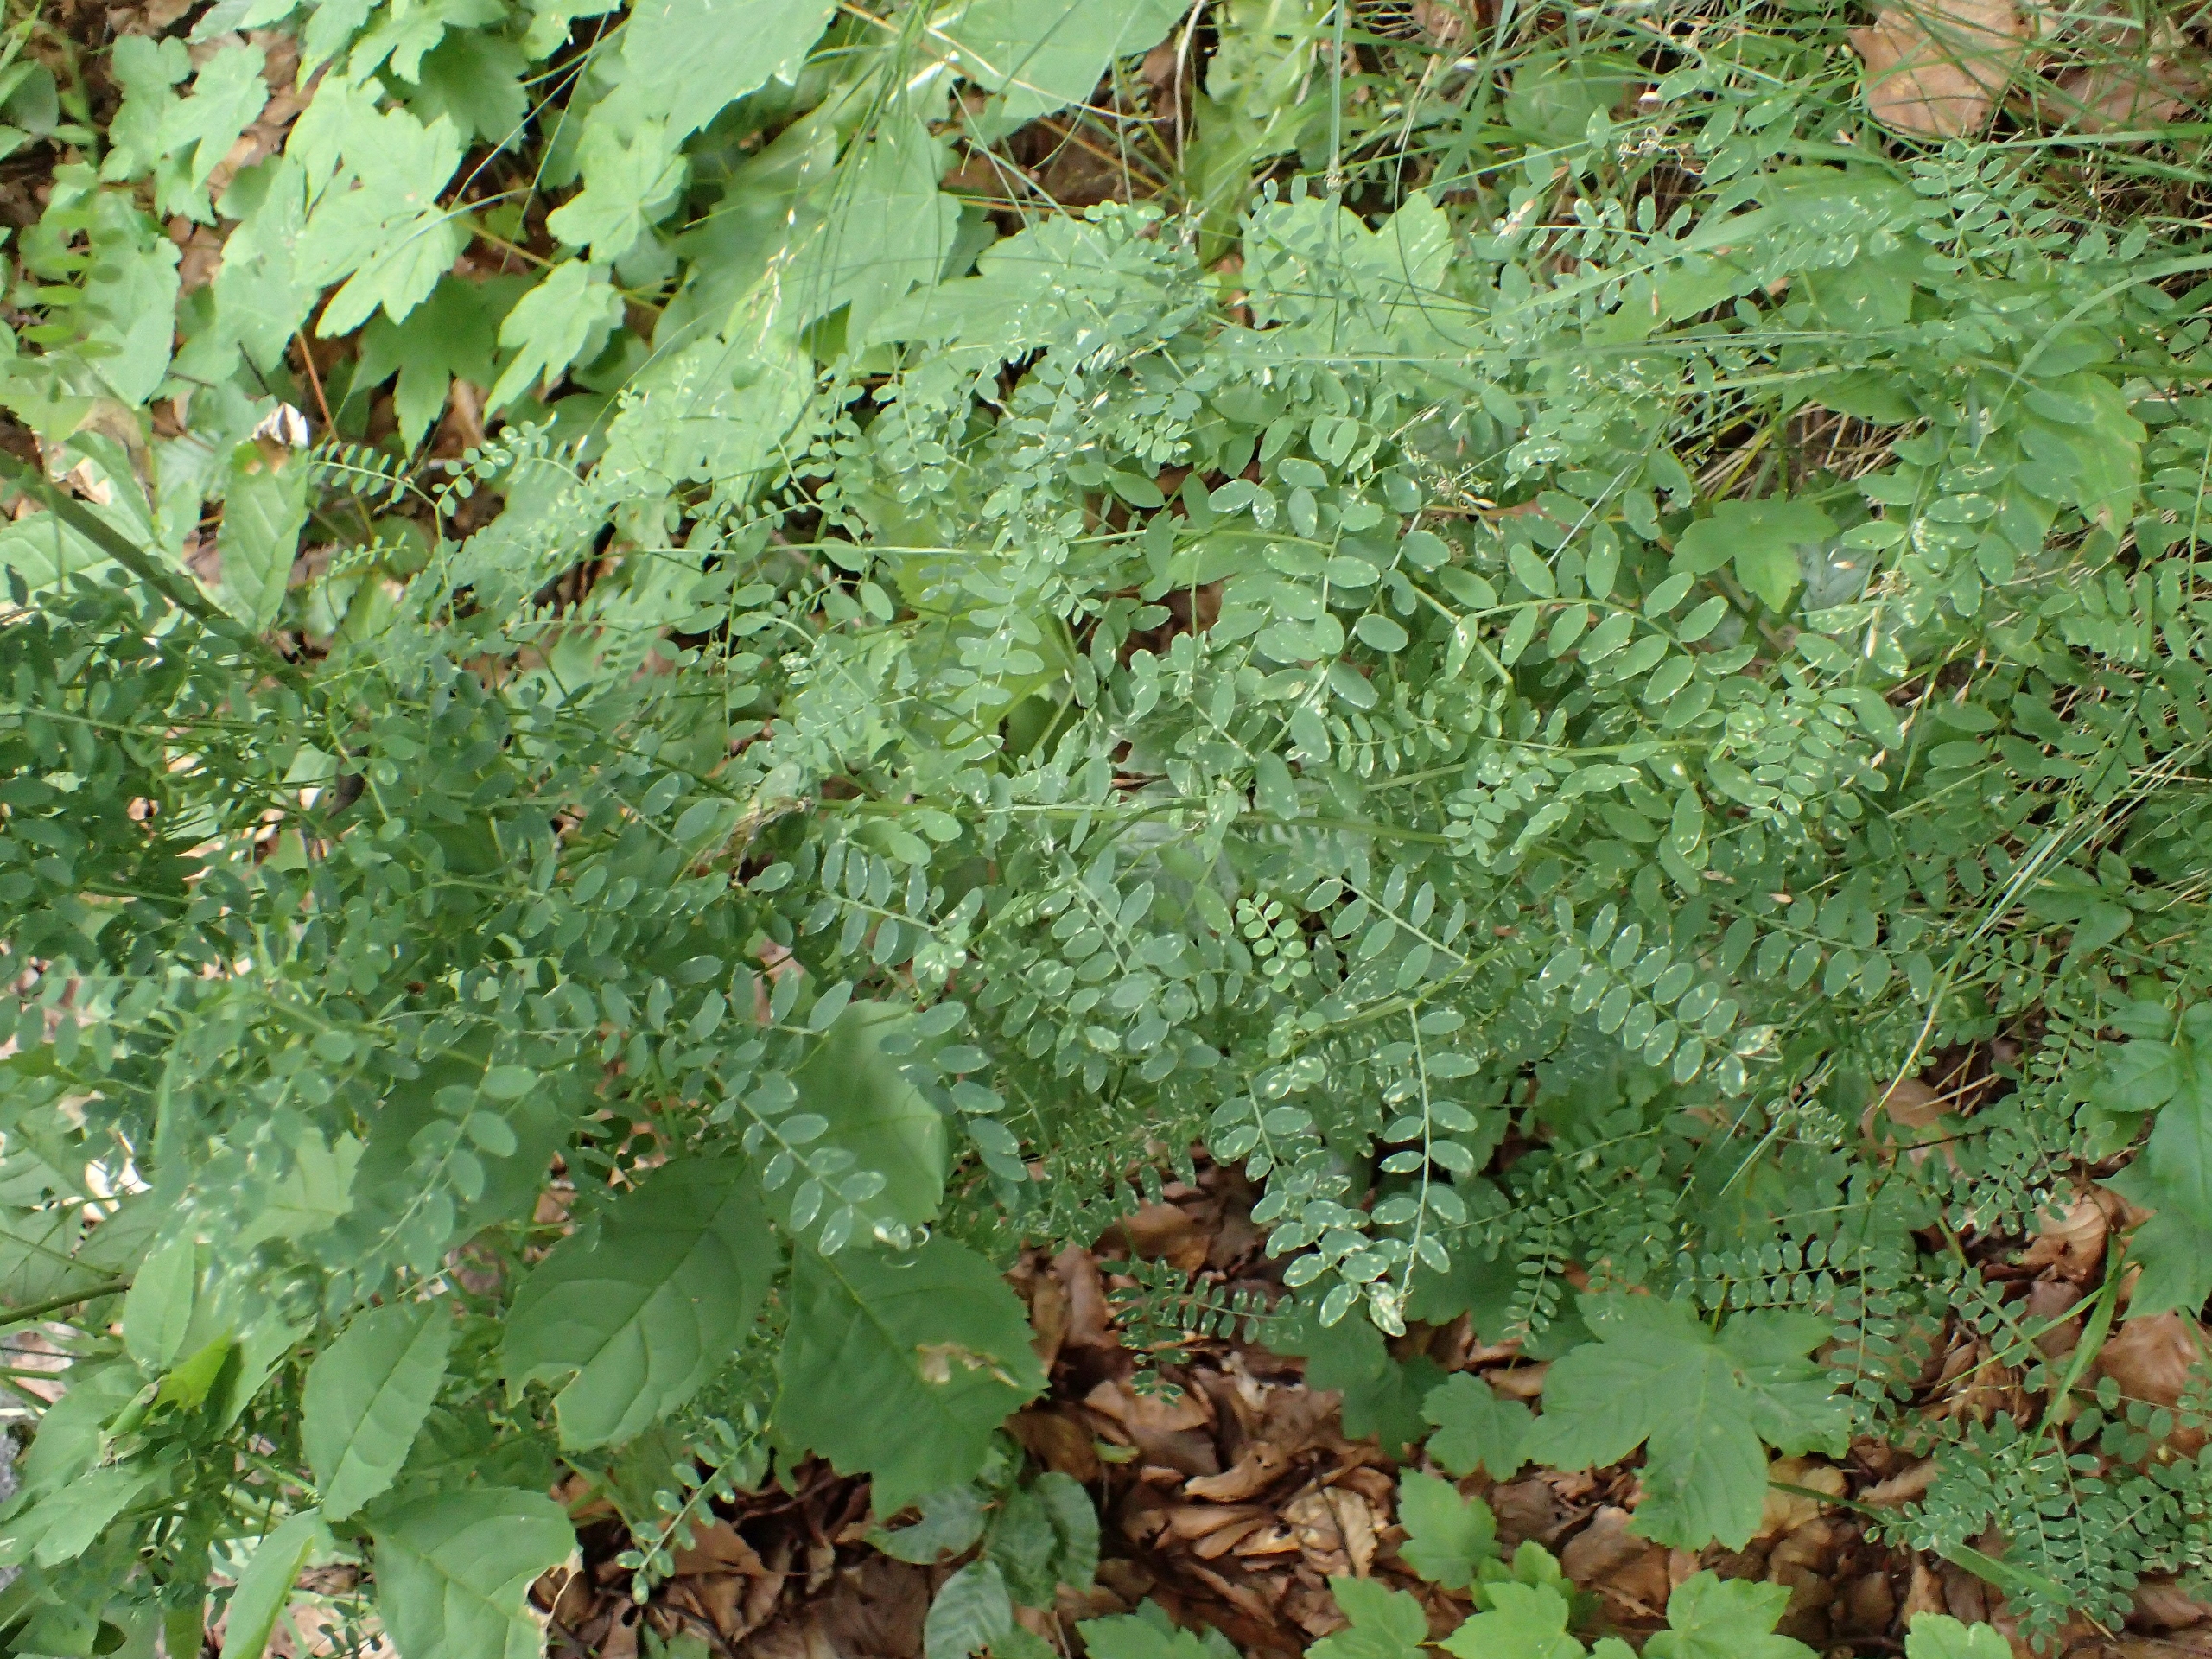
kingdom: Plantae
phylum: Tracheophyta
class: Magnoliopsida
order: Fabales
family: Fabaceae
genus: Vicia
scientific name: Vicia sylvatica
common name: Skov-vikke
